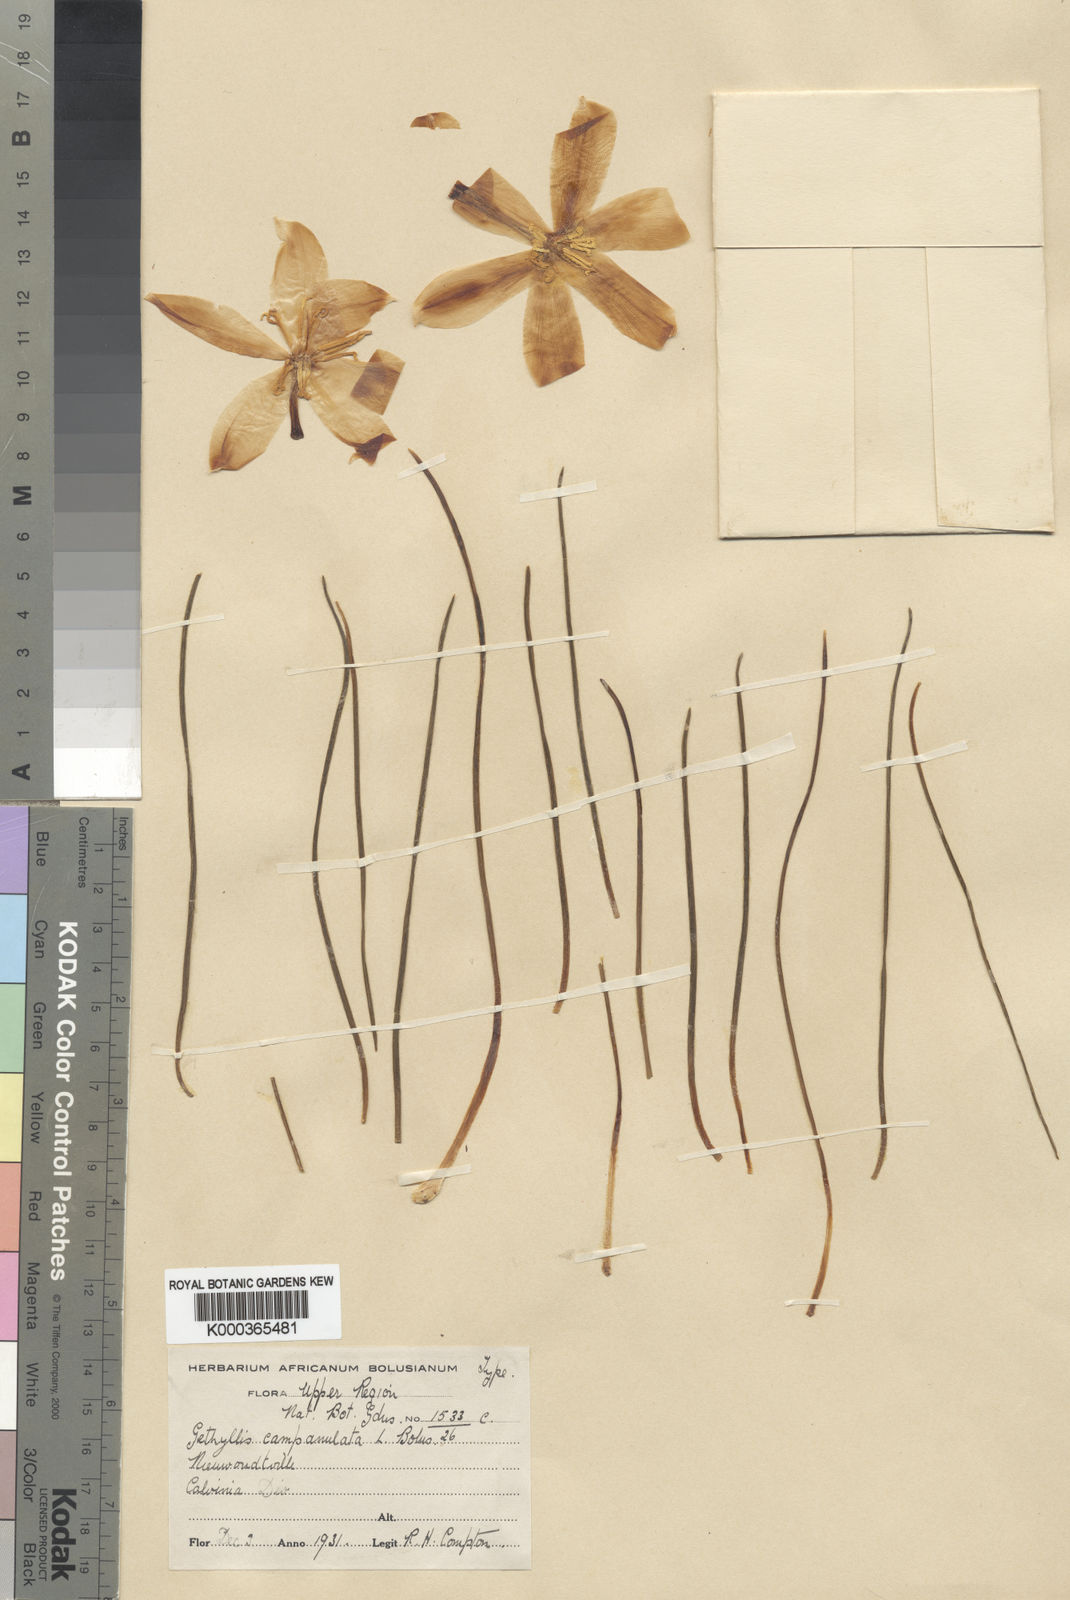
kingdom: Plantae
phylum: Tracheophyta
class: Liliopsida
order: Asparagales
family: Amaryllidaceae
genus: Gethyllis
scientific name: Gethyllis campanulata
